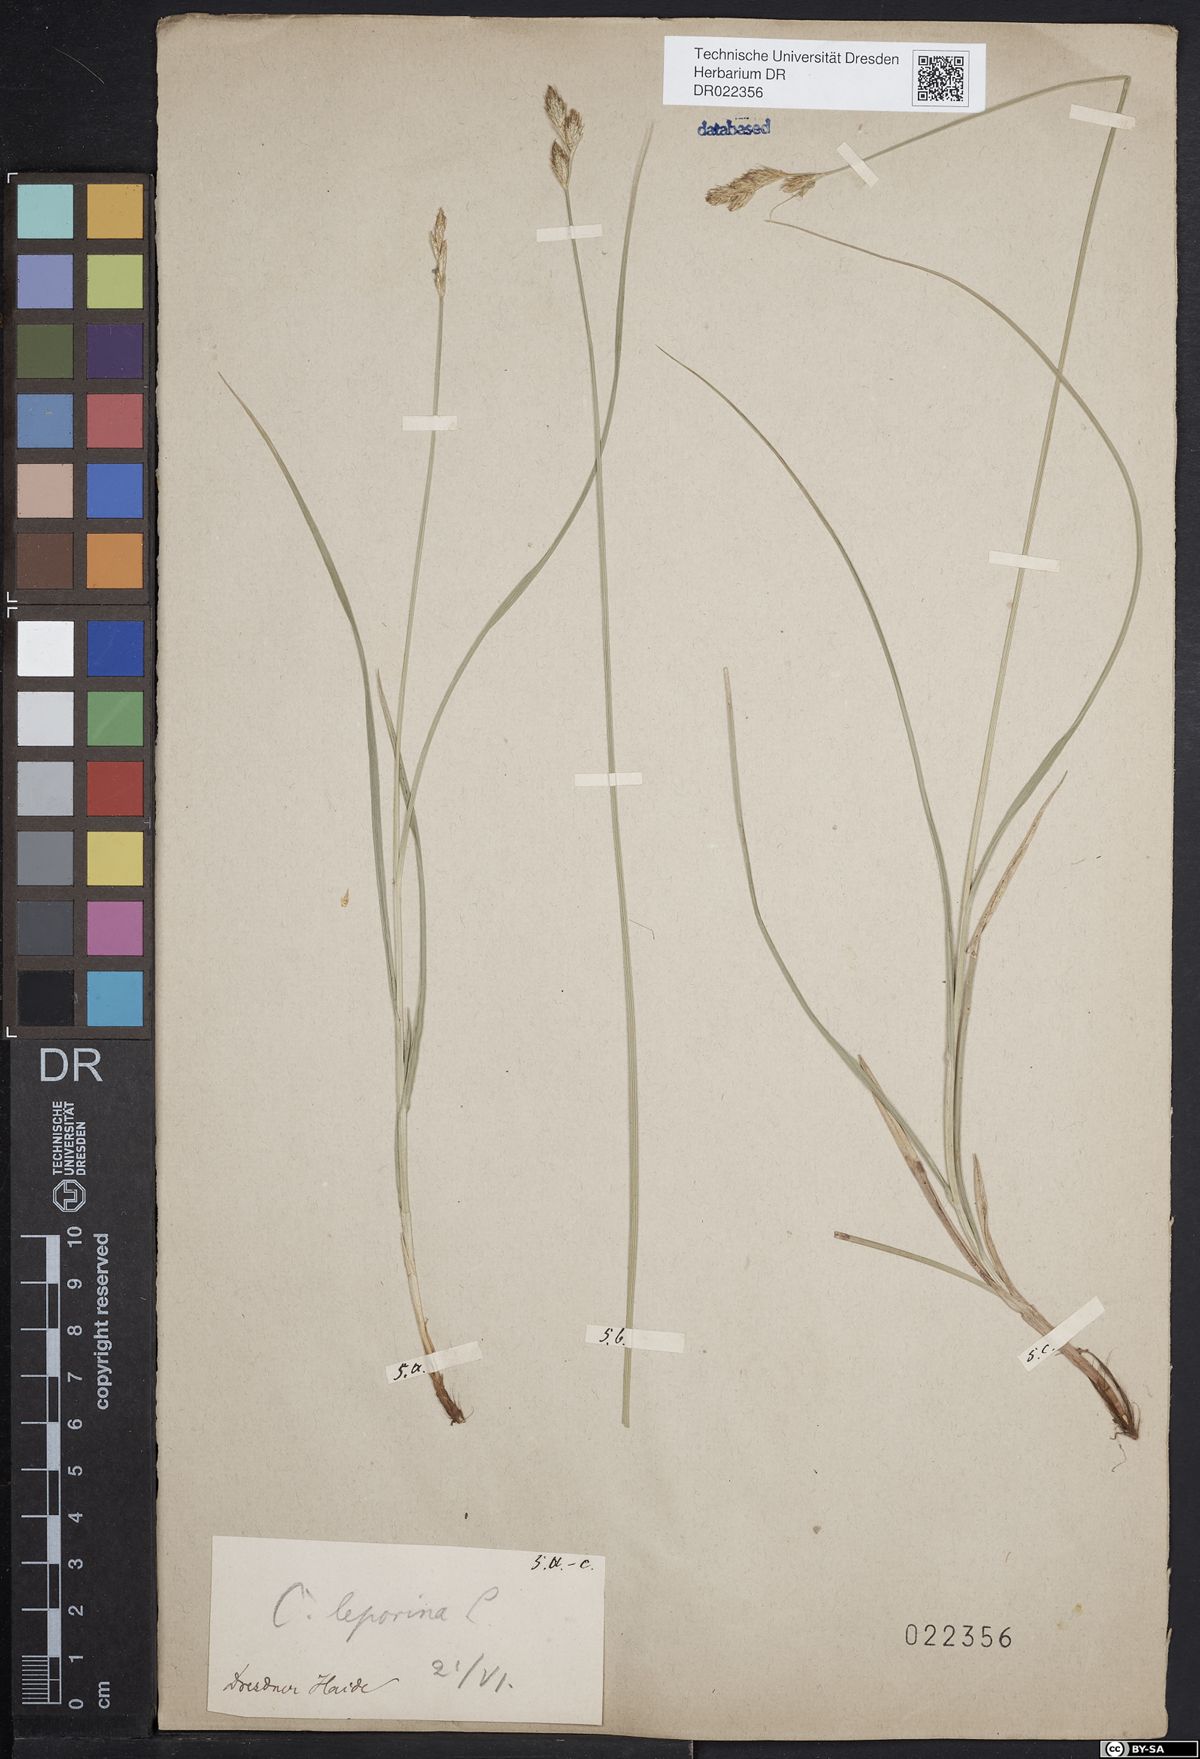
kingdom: Plantae
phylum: Tracheophyta
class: Liliopsida
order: Poales
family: Cyperaceae
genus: Carex
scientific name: Carex leporina
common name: Oval sedge
